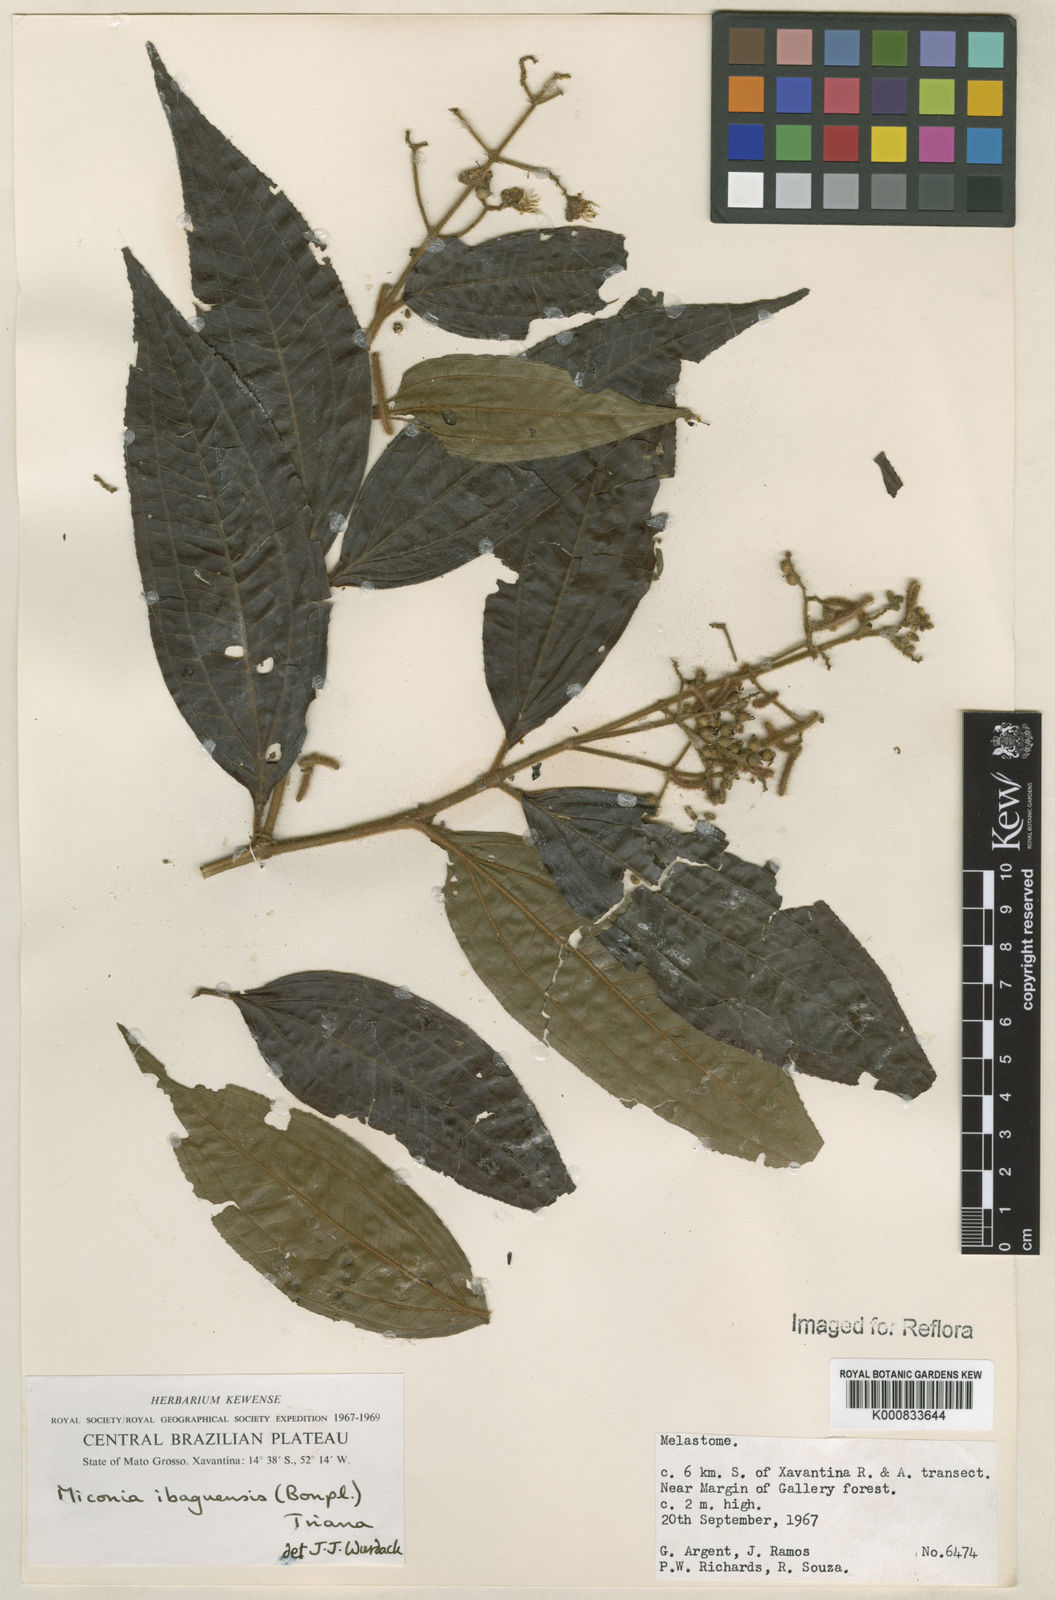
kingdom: Plantae
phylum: Tracheophyta
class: Magnoliopsida
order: Myrtales
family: Melastomataceae
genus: Miconia
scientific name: Miconia ibaguensis
